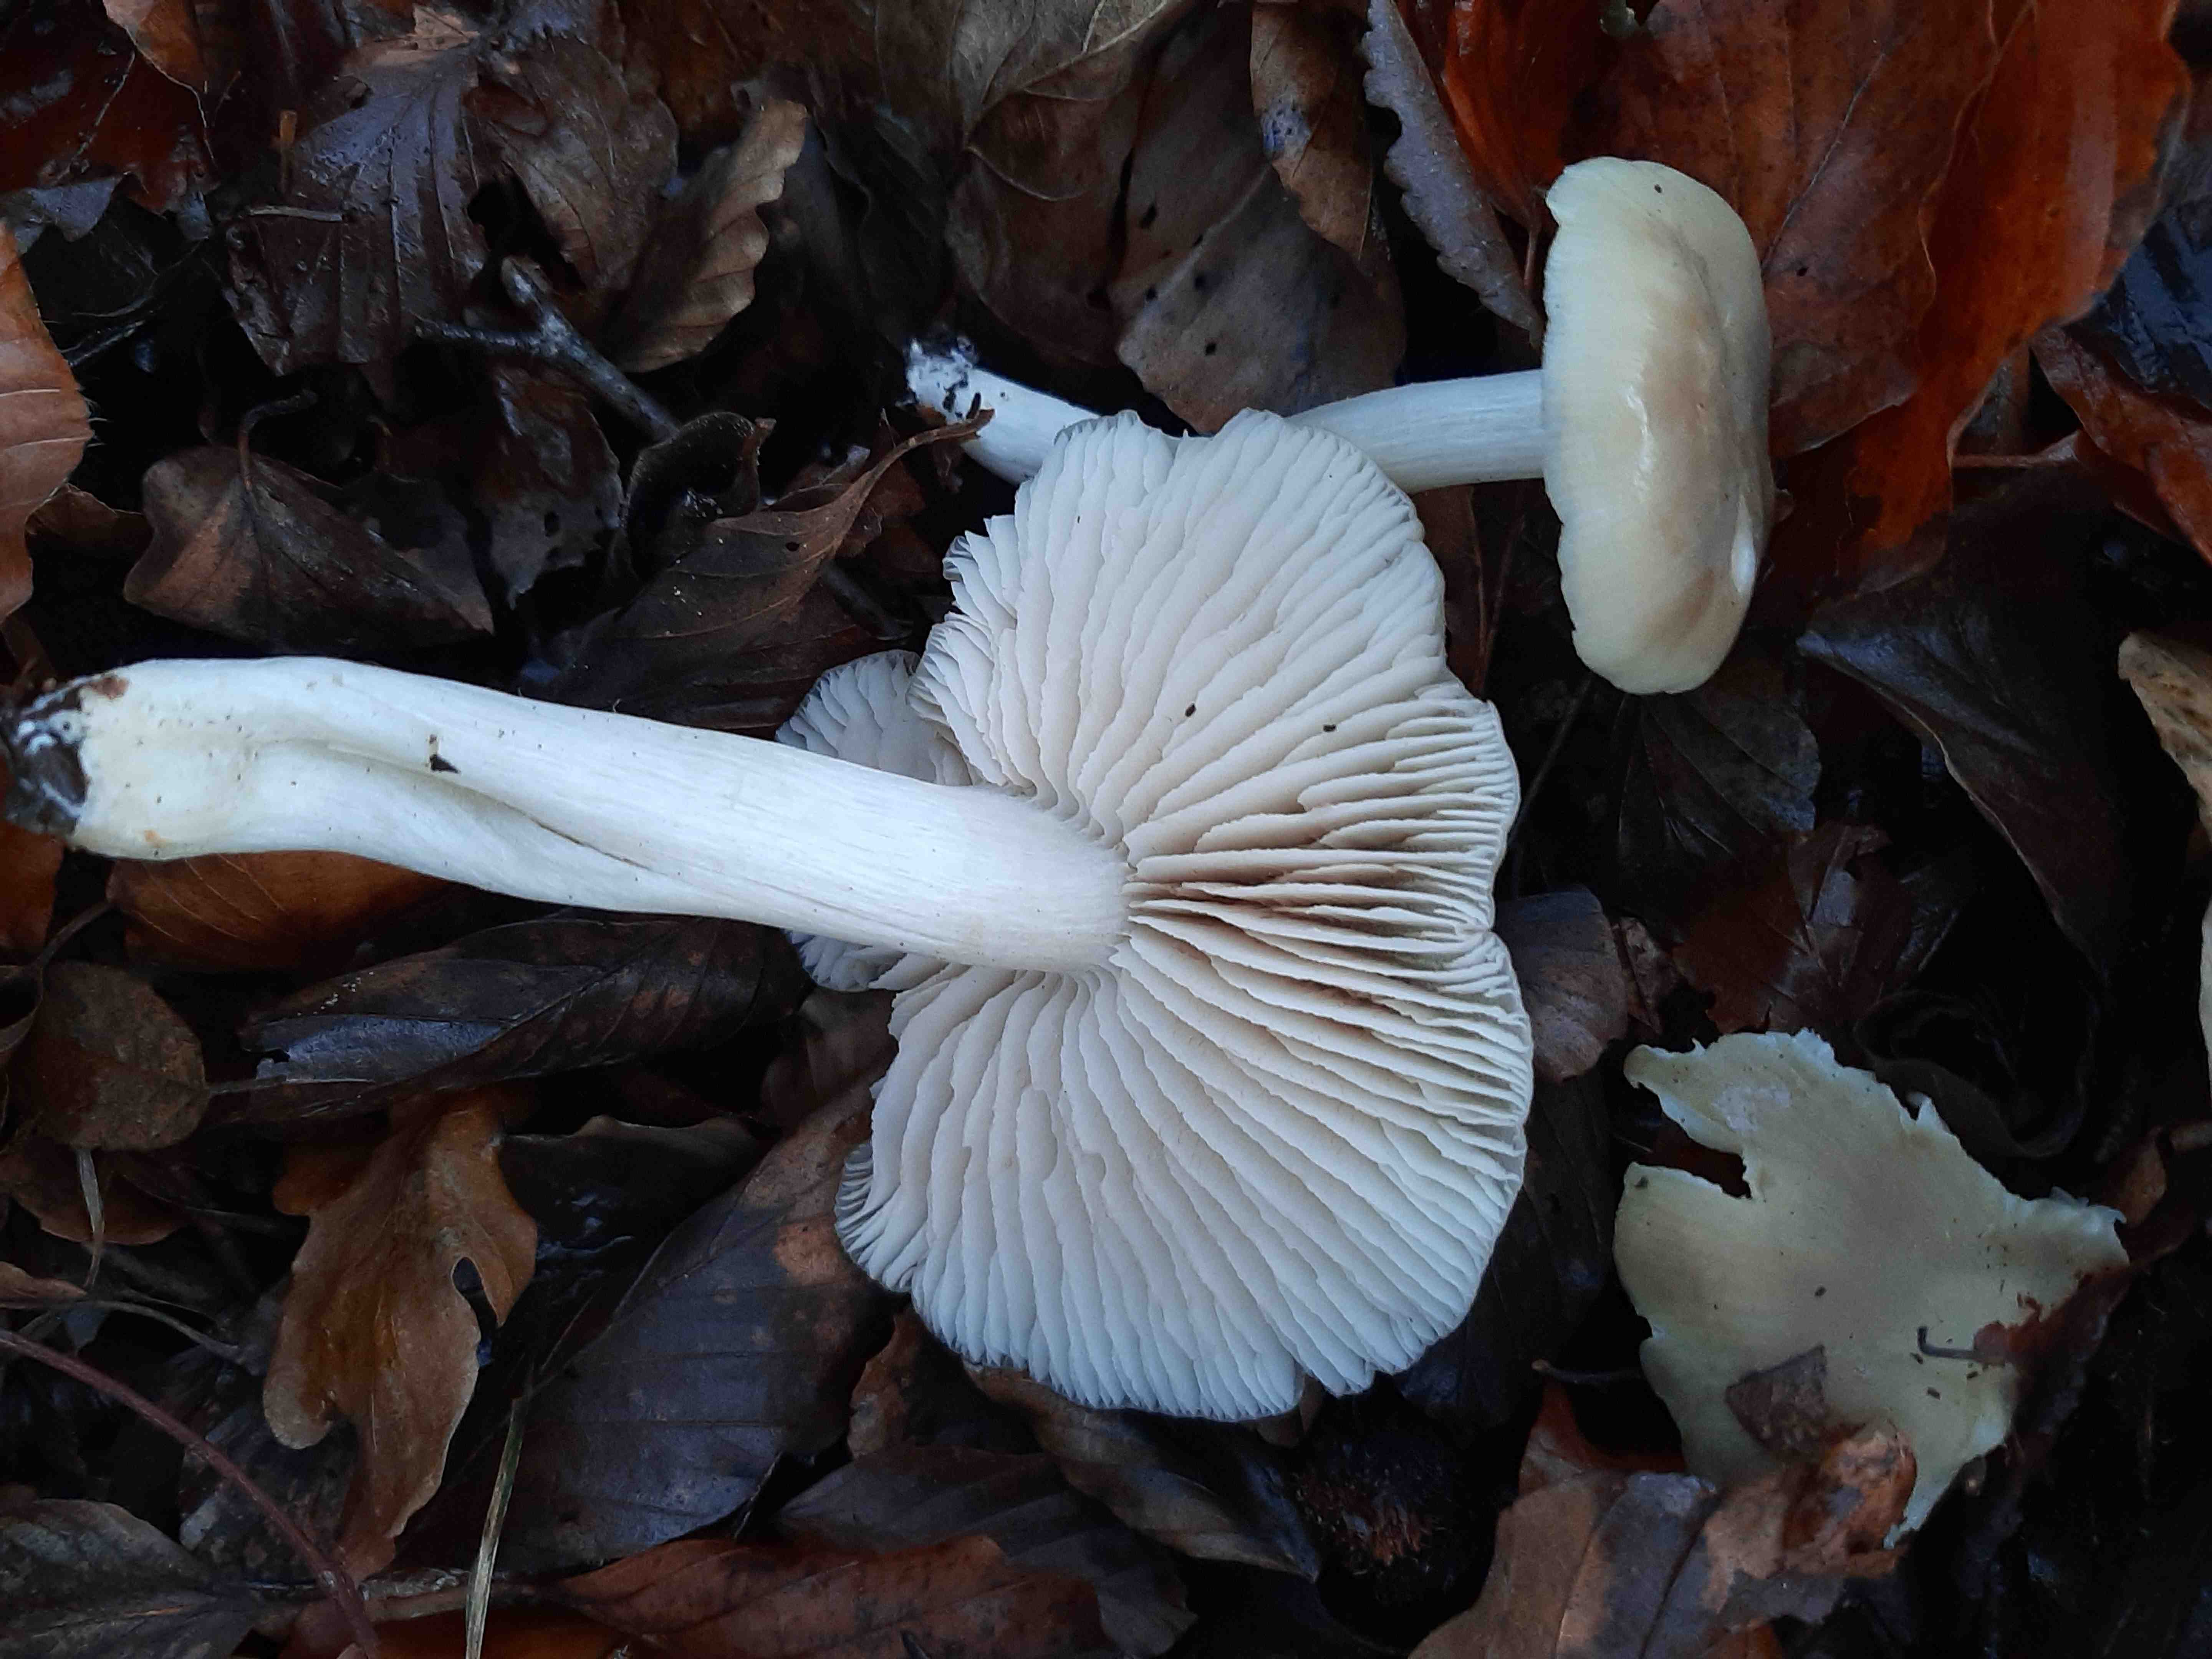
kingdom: Fungi
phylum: Basidiomycota
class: Agaricomycetes
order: Agaricales
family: Entolomataceae
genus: Entoloma
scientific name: Entoloma
